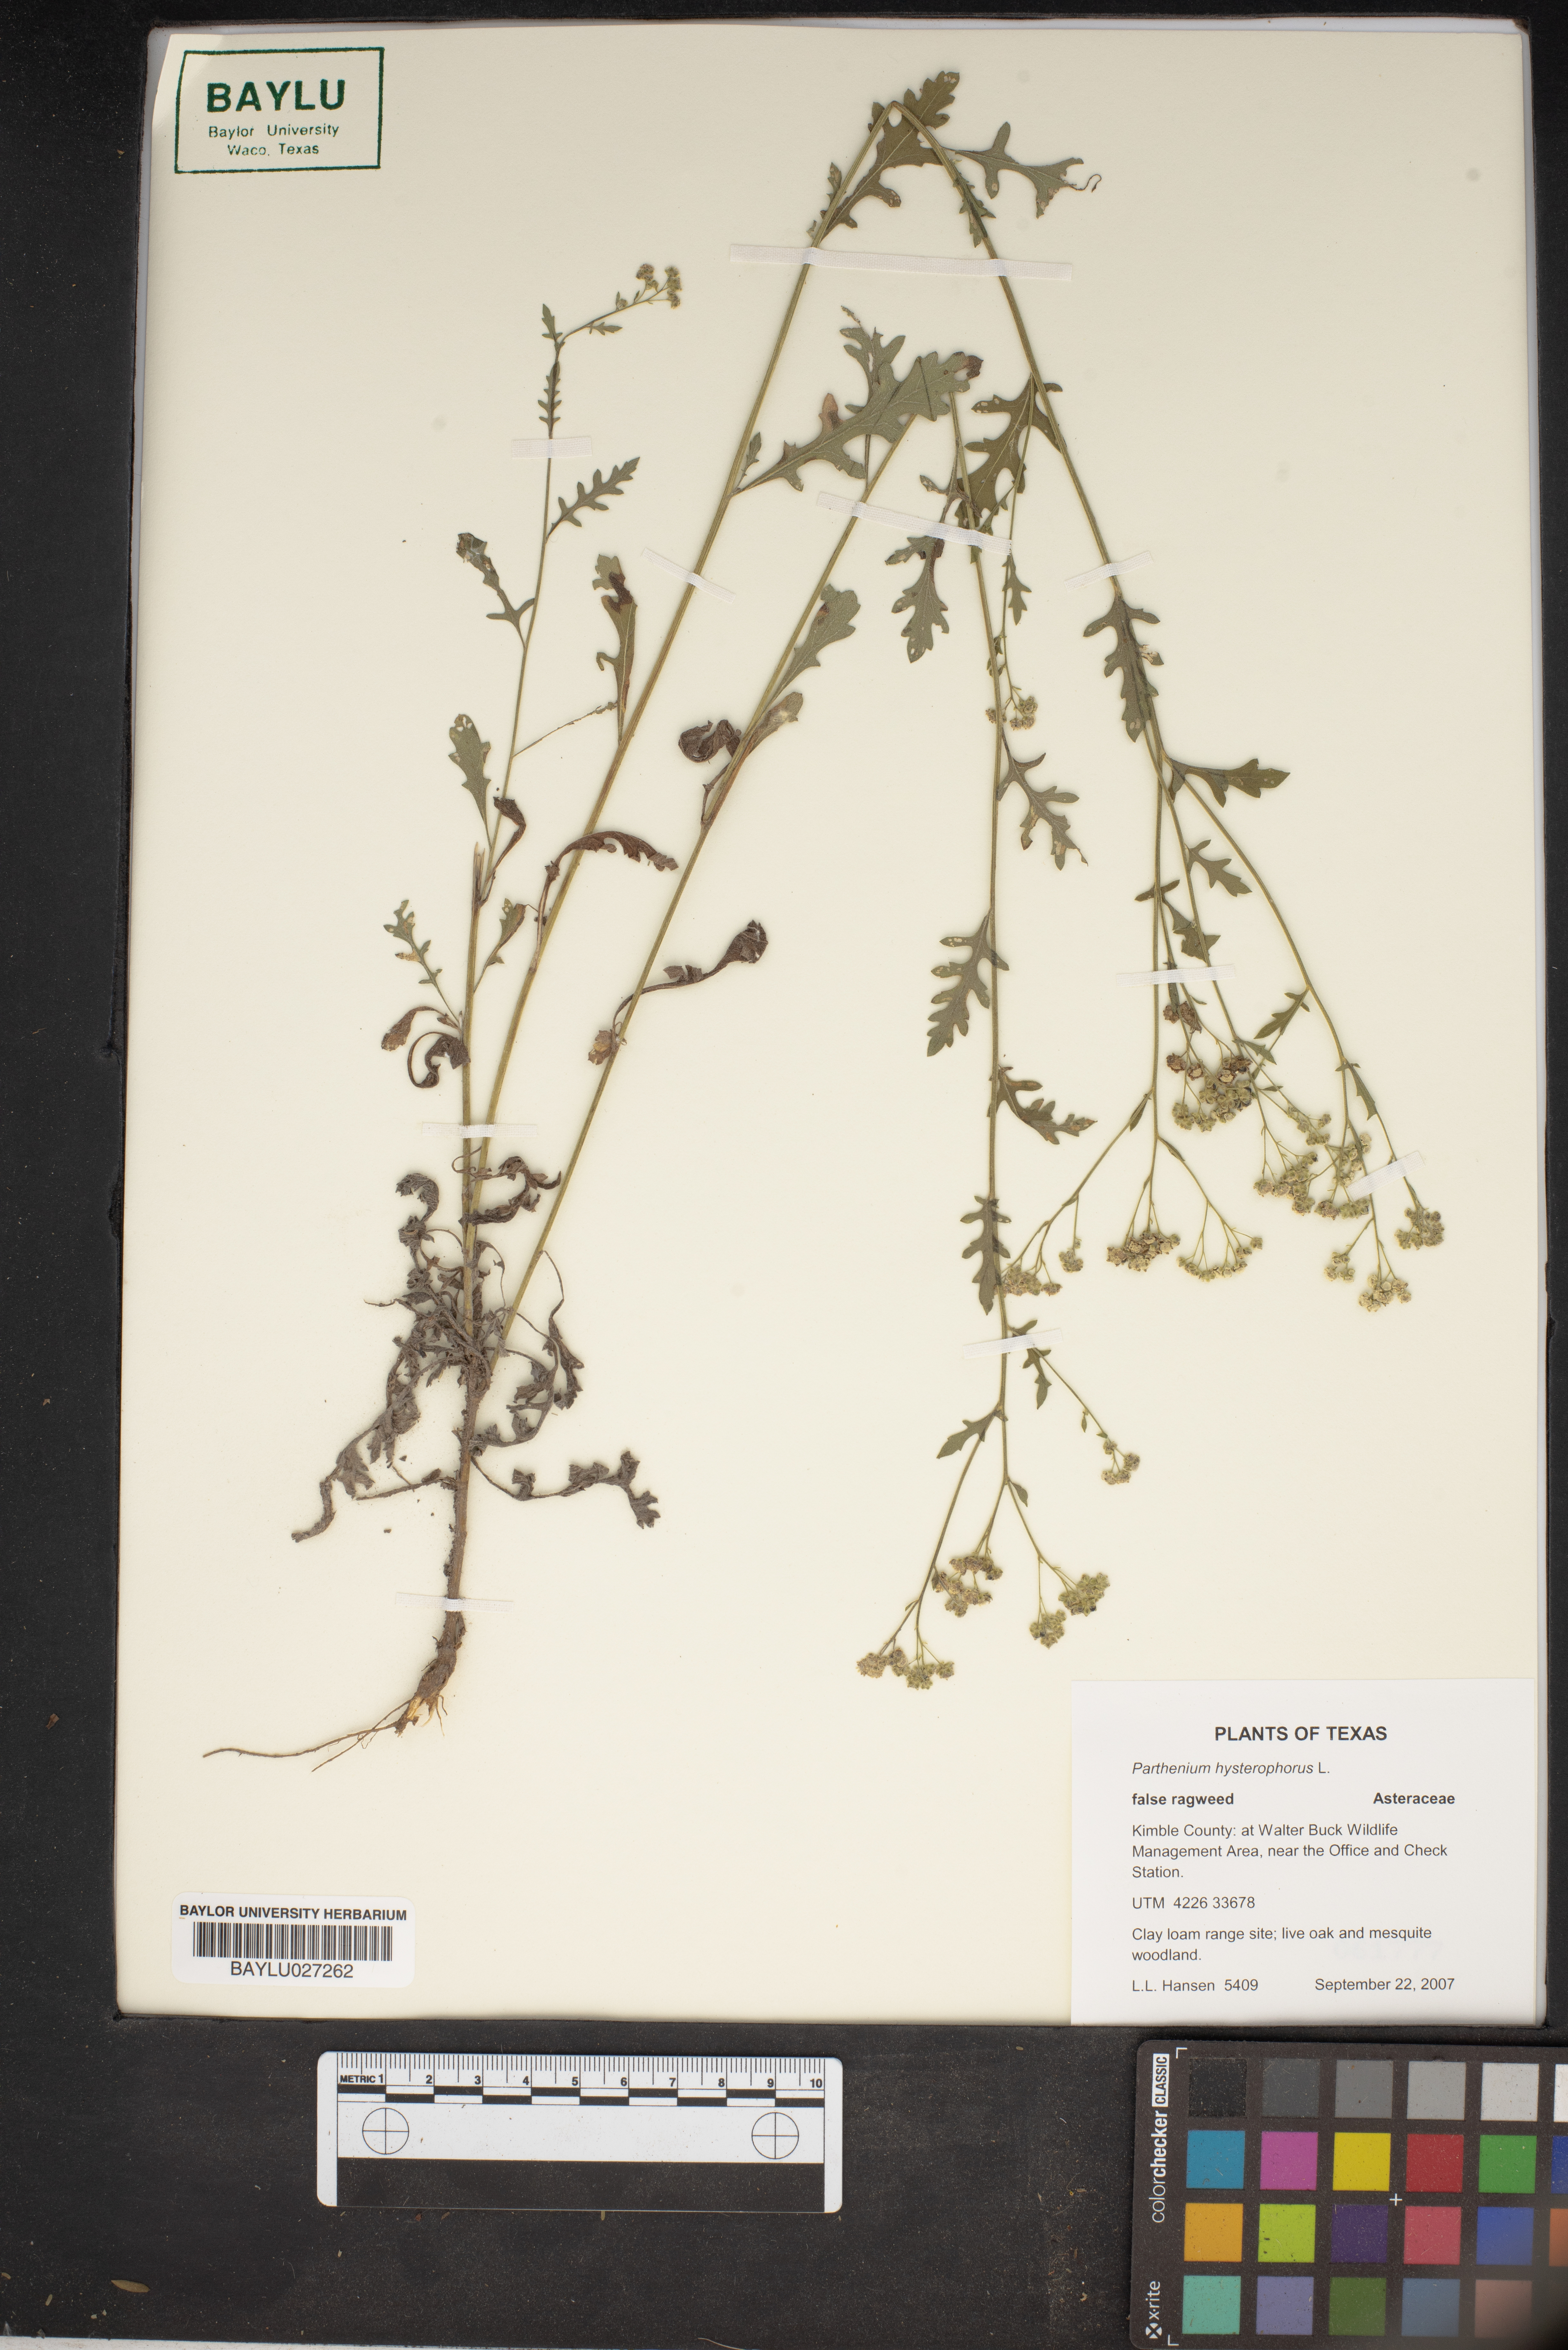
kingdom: Plantae
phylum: Tracheophyta
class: Magnoliopsida
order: Asterales
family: Asteraceae
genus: Parthenium
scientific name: Parthenium hysterophorus
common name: Santa maria feverfew
